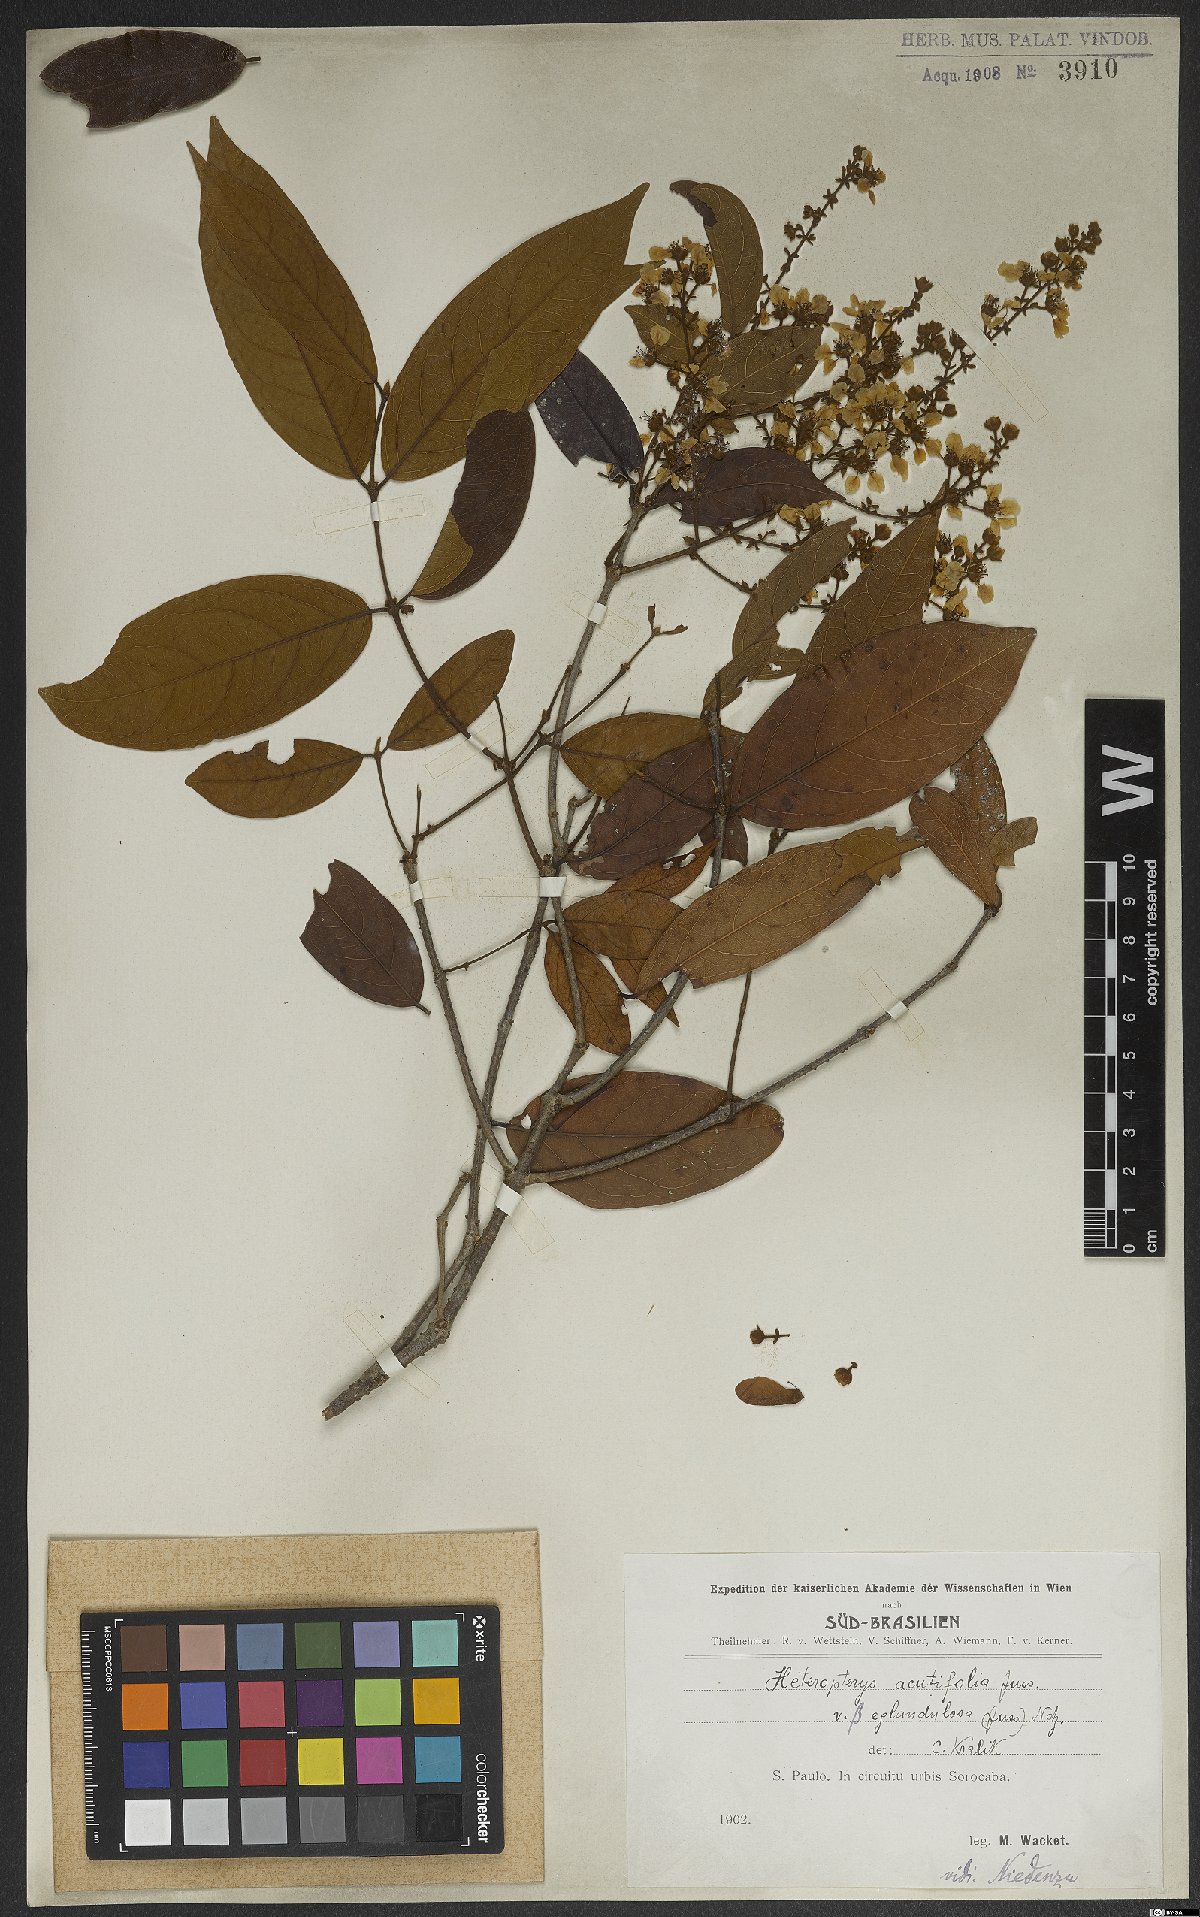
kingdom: Plantae
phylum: Tracheophyta
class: Magnoliopsida
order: Malpighiales
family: Malpighiaceae
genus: Heteropterys
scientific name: Heteropterys orinocensis
